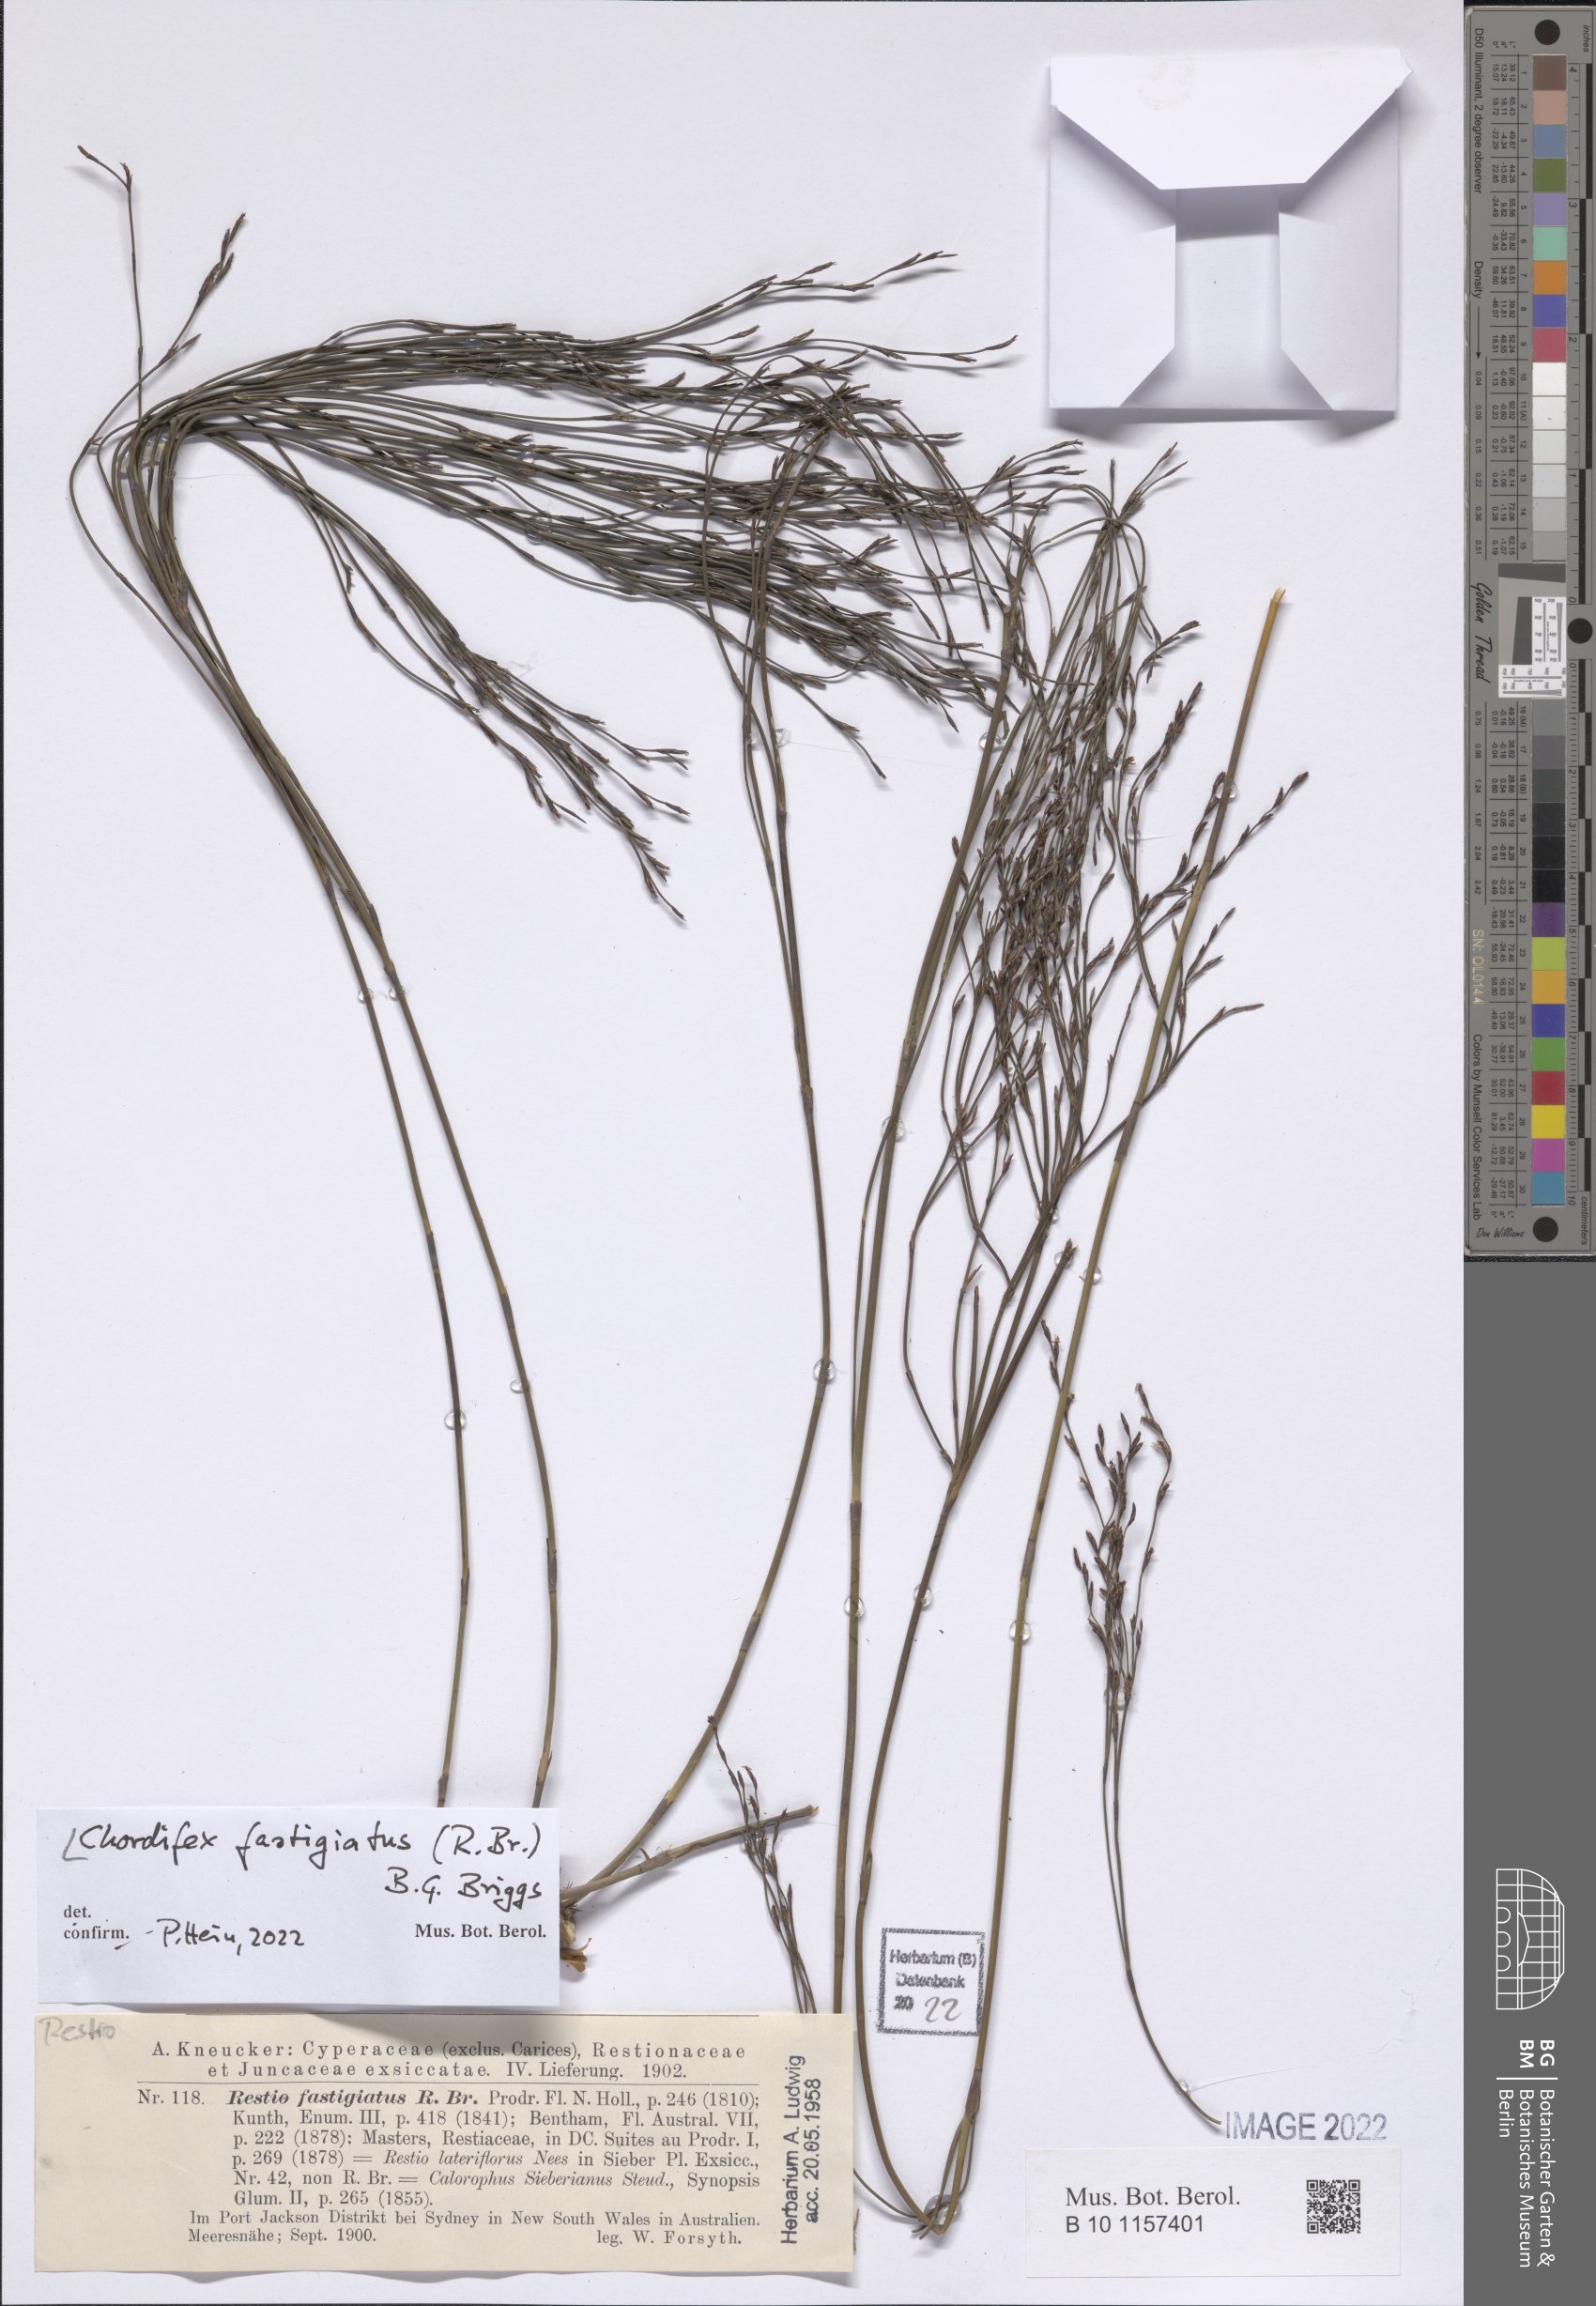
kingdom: Plantae
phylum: Tracheophyta
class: Liliopsida
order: Poales
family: Restionaceae
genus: Chordifex
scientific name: Chordifex fastigiatus
